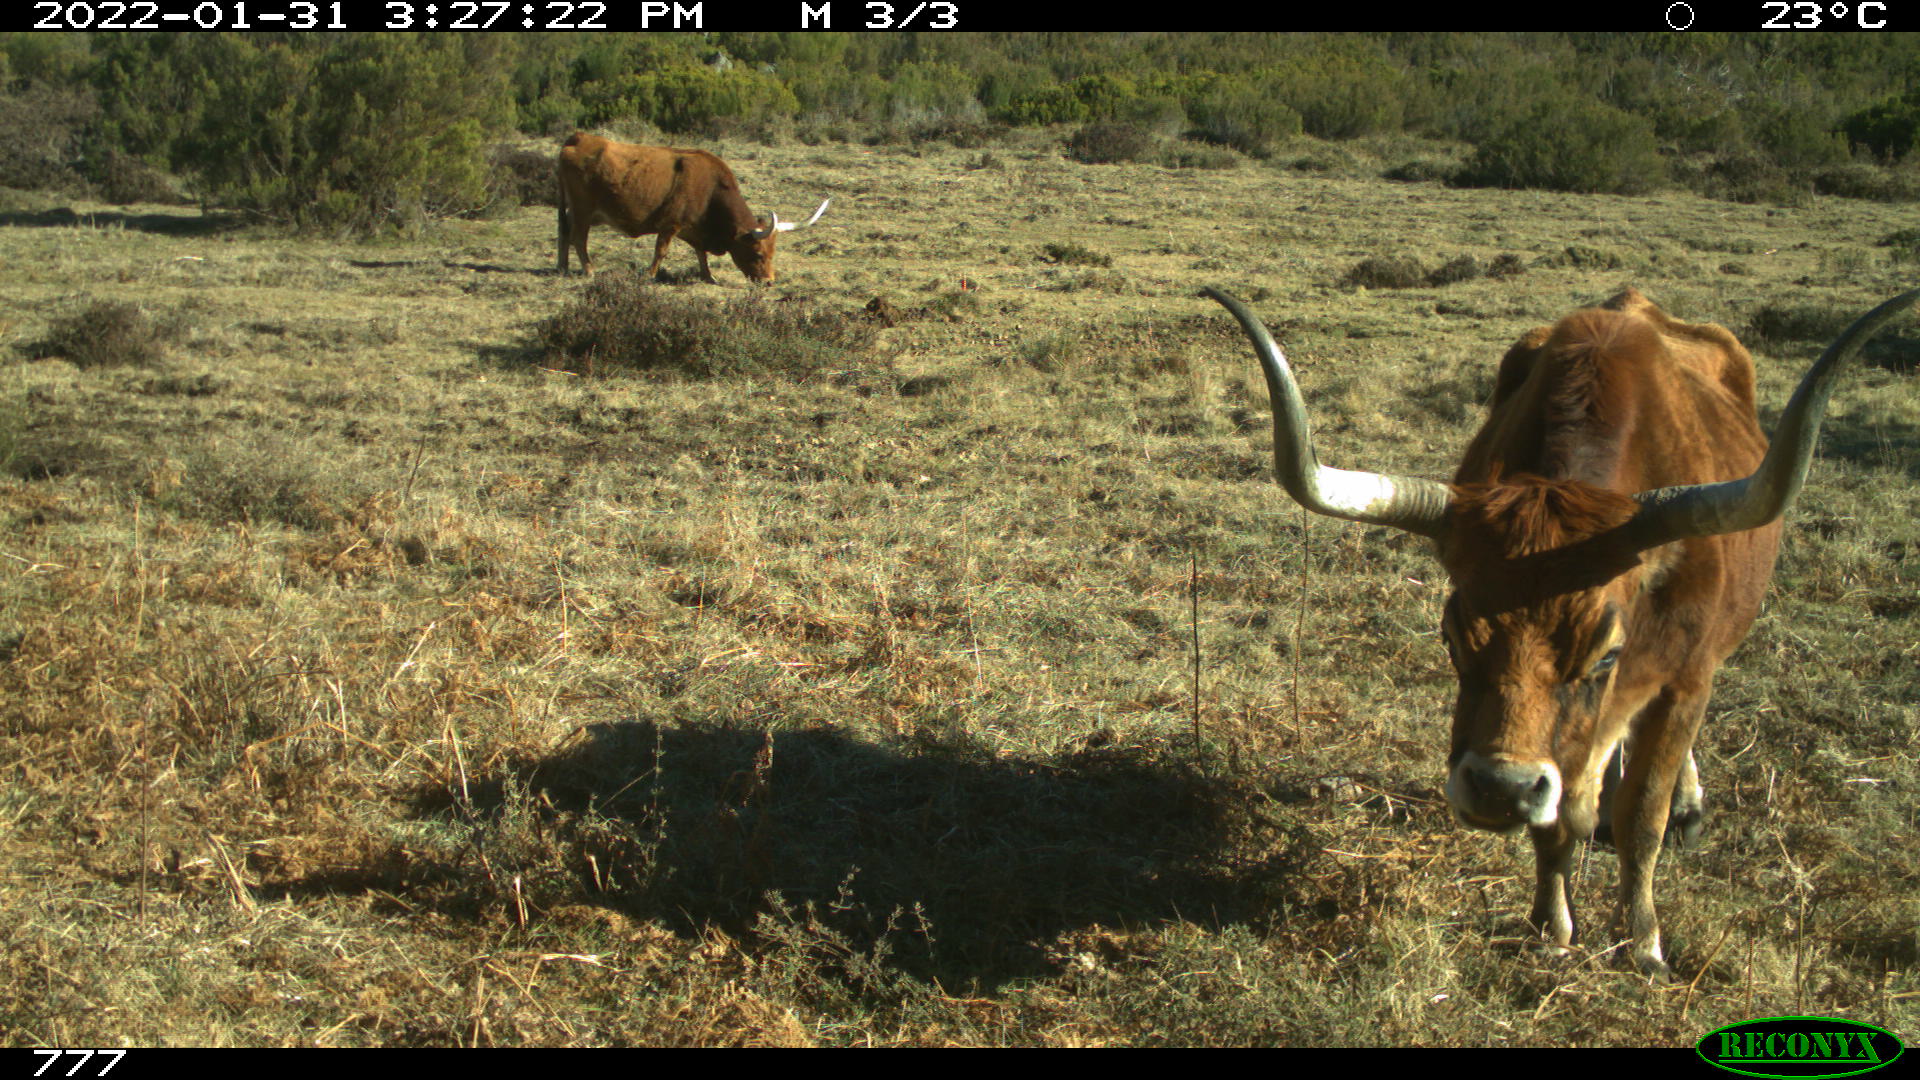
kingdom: Animalia
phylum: Chordata
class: Mammalia
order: Artiodactyla
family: Bovidae
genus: Bos
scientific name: Bos taurus
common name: Domesticated cattle
